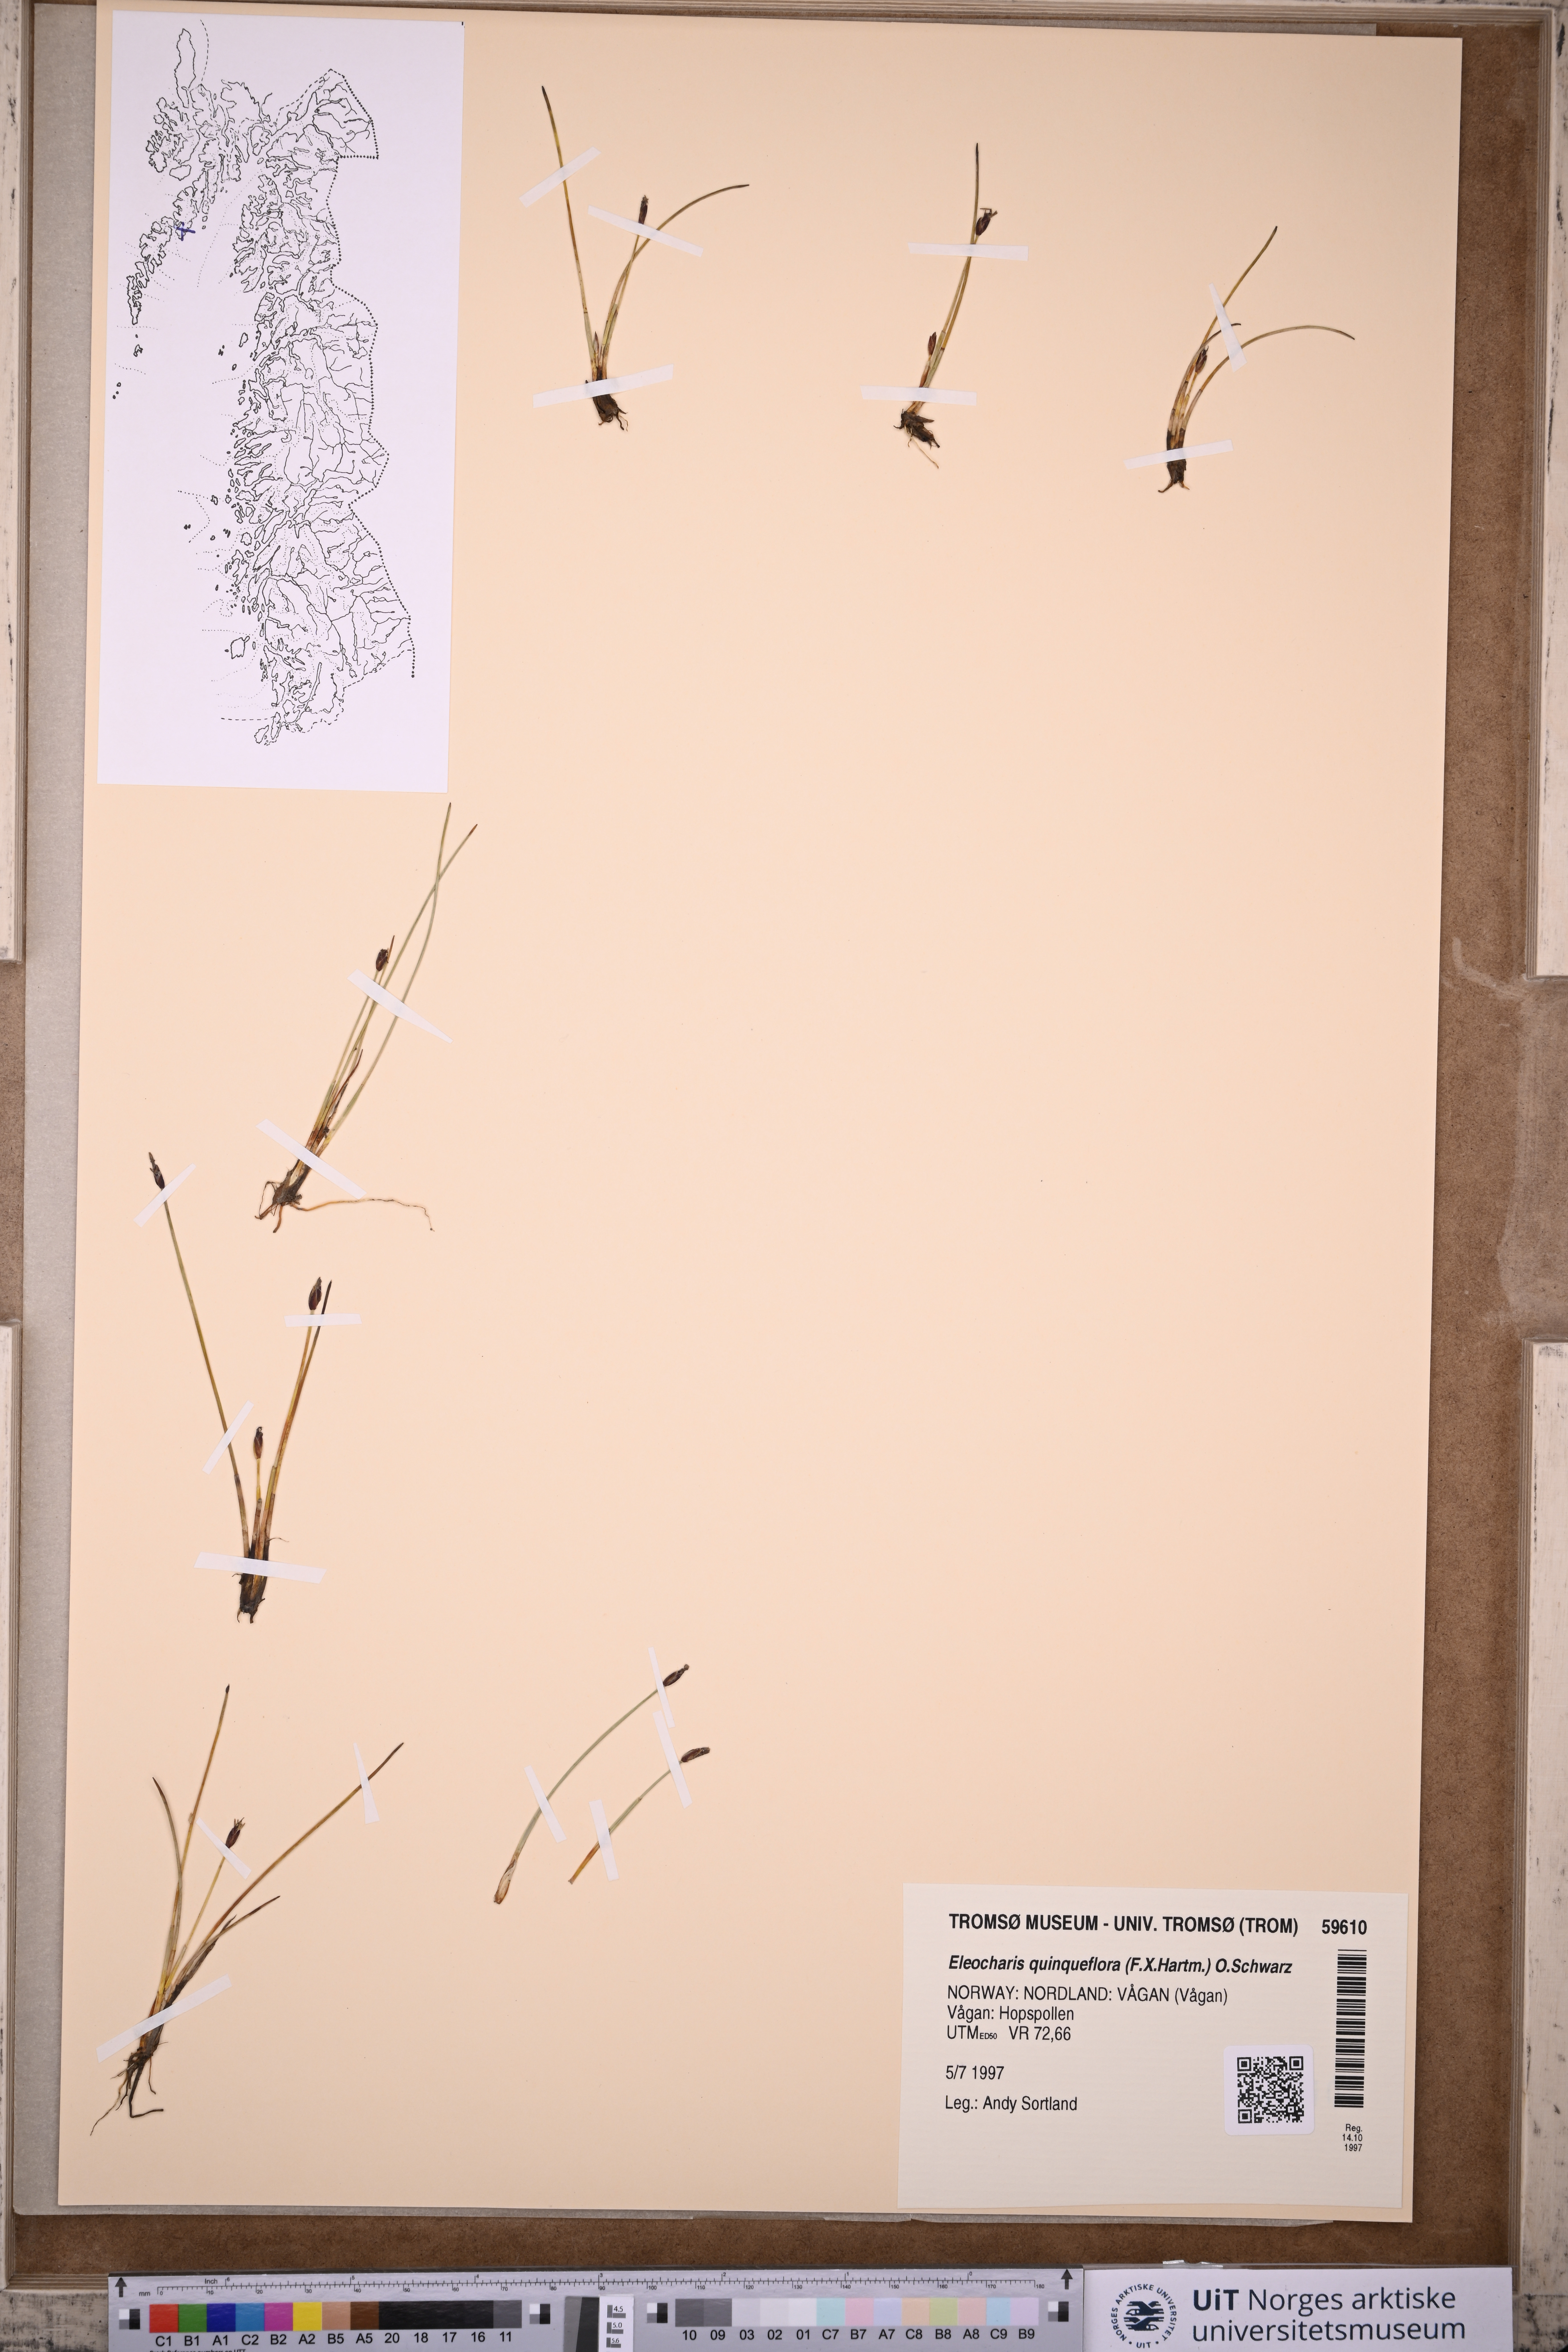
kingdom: Plantae
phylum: Tracheophyta
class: Liliopsida
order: Poales
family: Cyperaceae
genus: Eleocharis
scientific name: Eleocharis quinqueflora
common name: Few-flowered spike-rush
